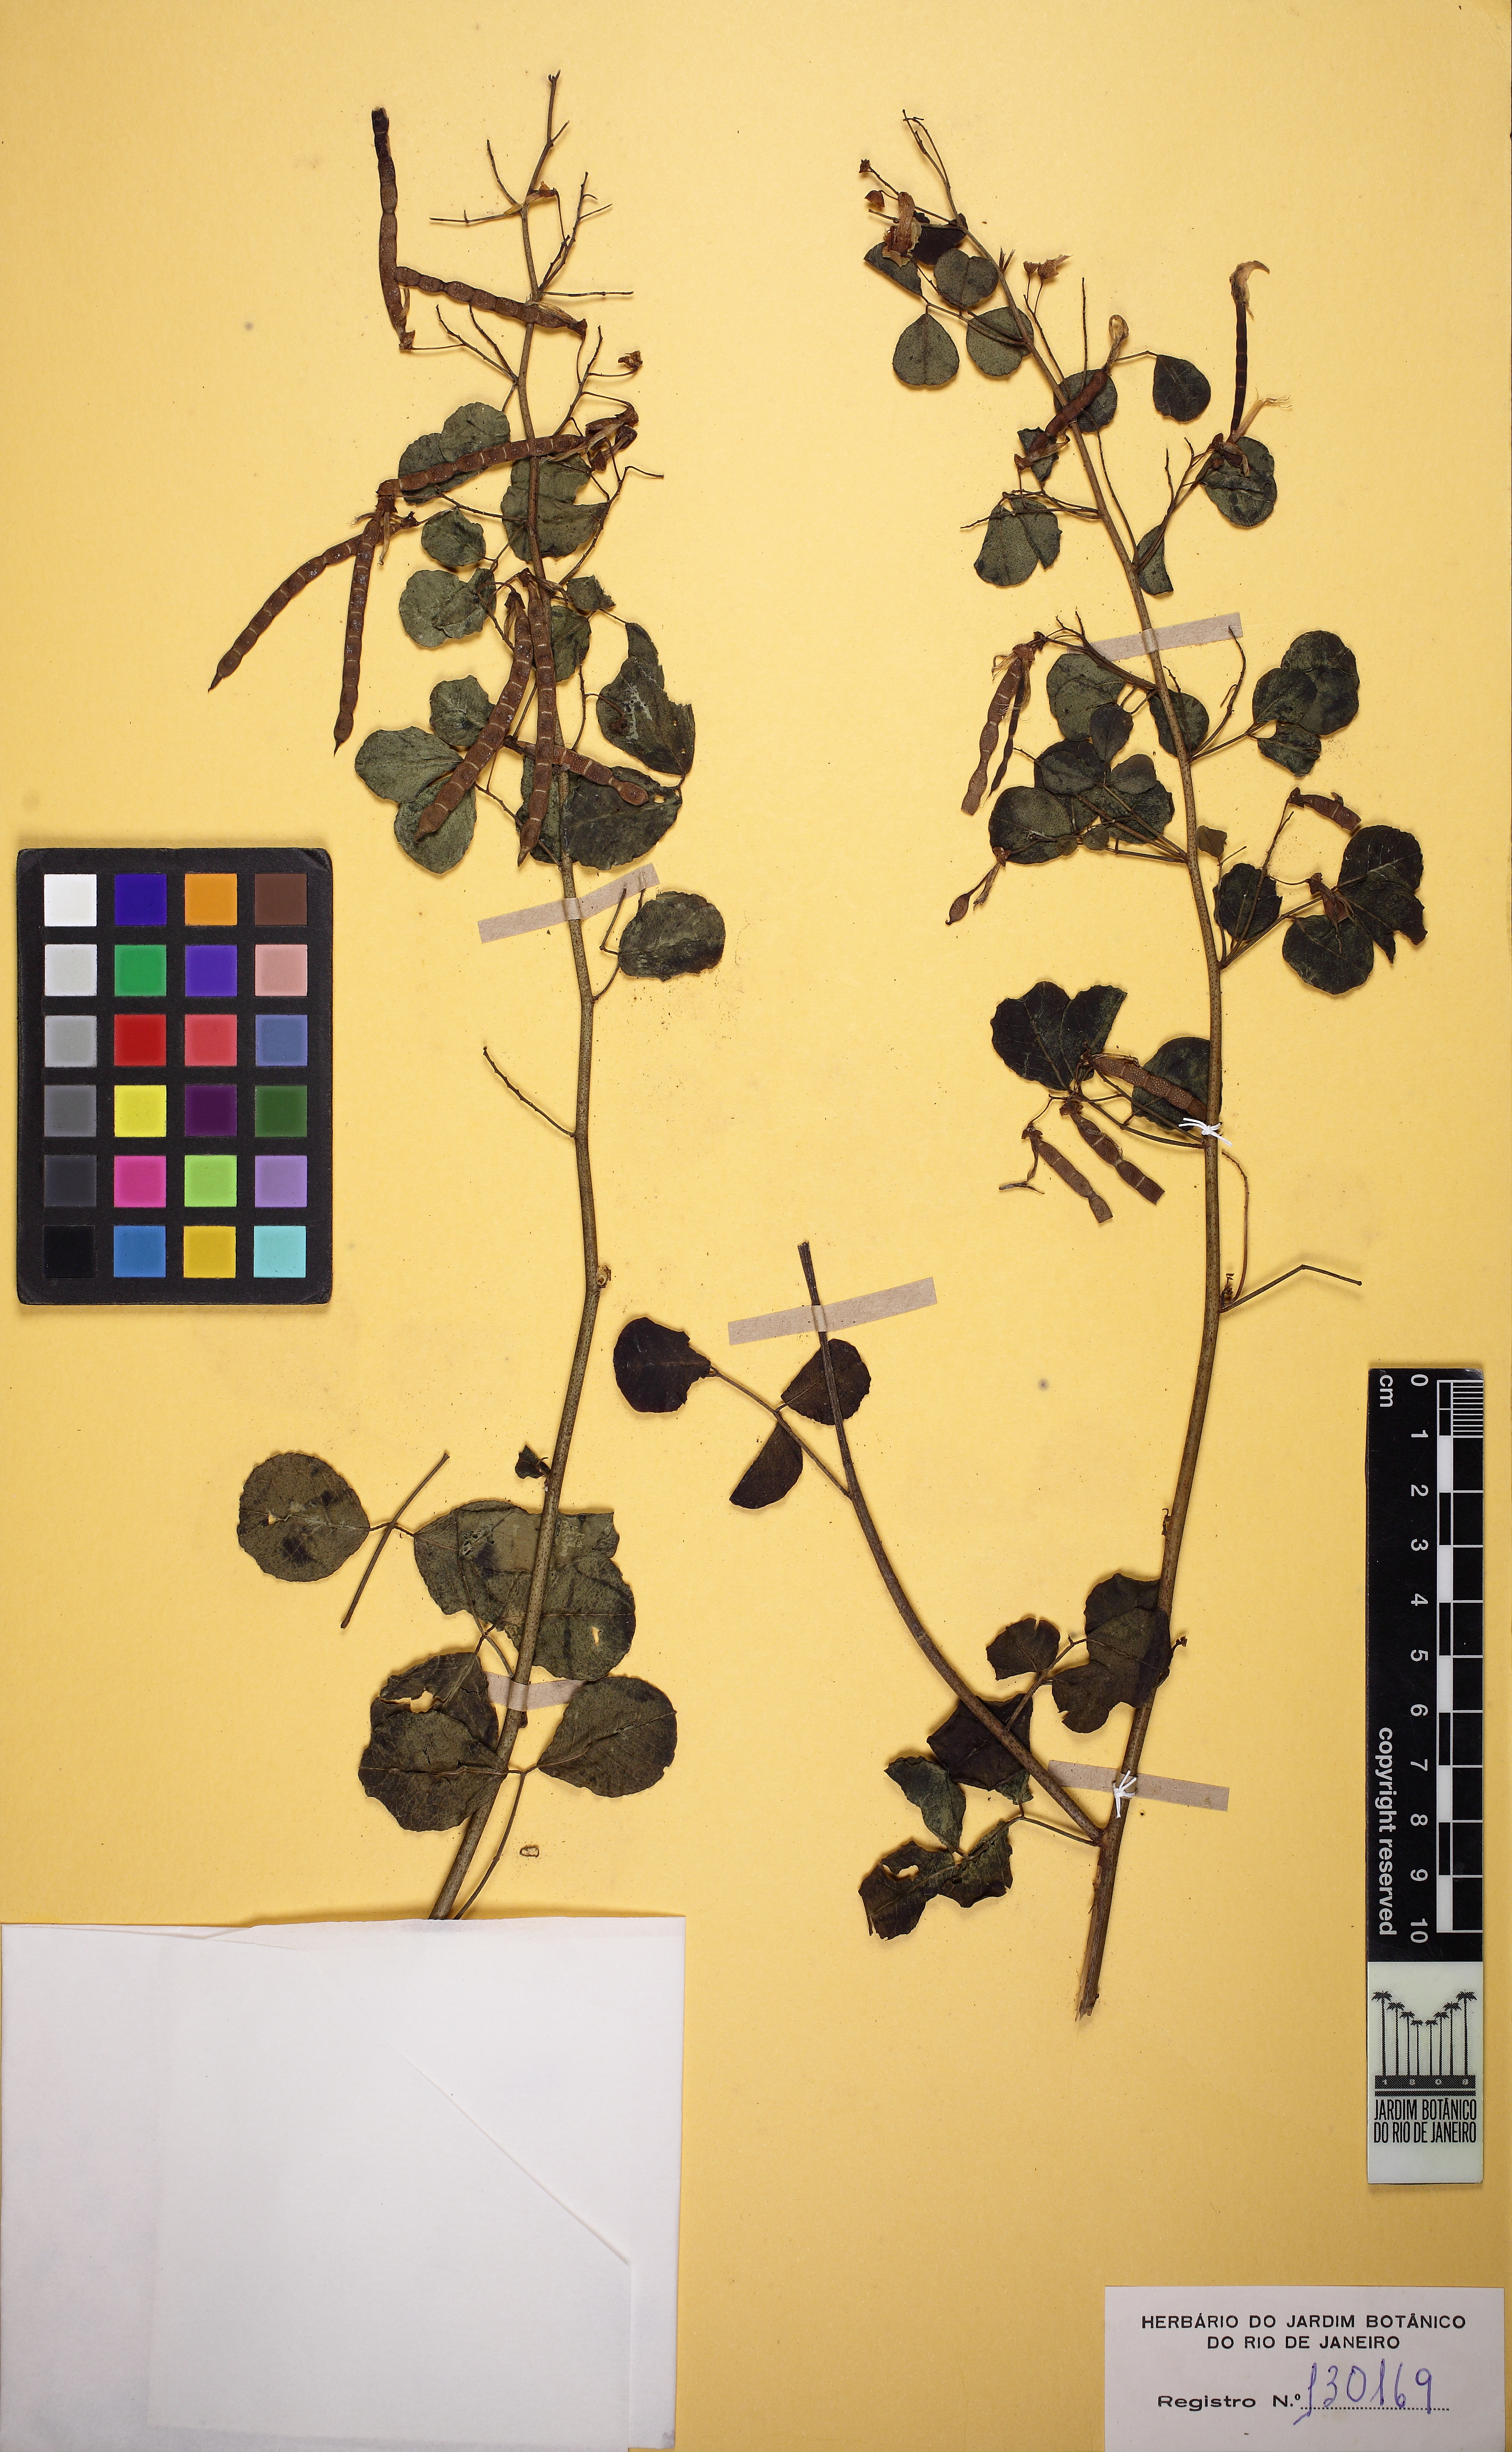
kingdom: Plantae
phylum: Tracheophyta
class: Magnoliopsida
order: Fabales
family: Fabaceae
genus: Poiretia
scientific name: Poiretia punctata
